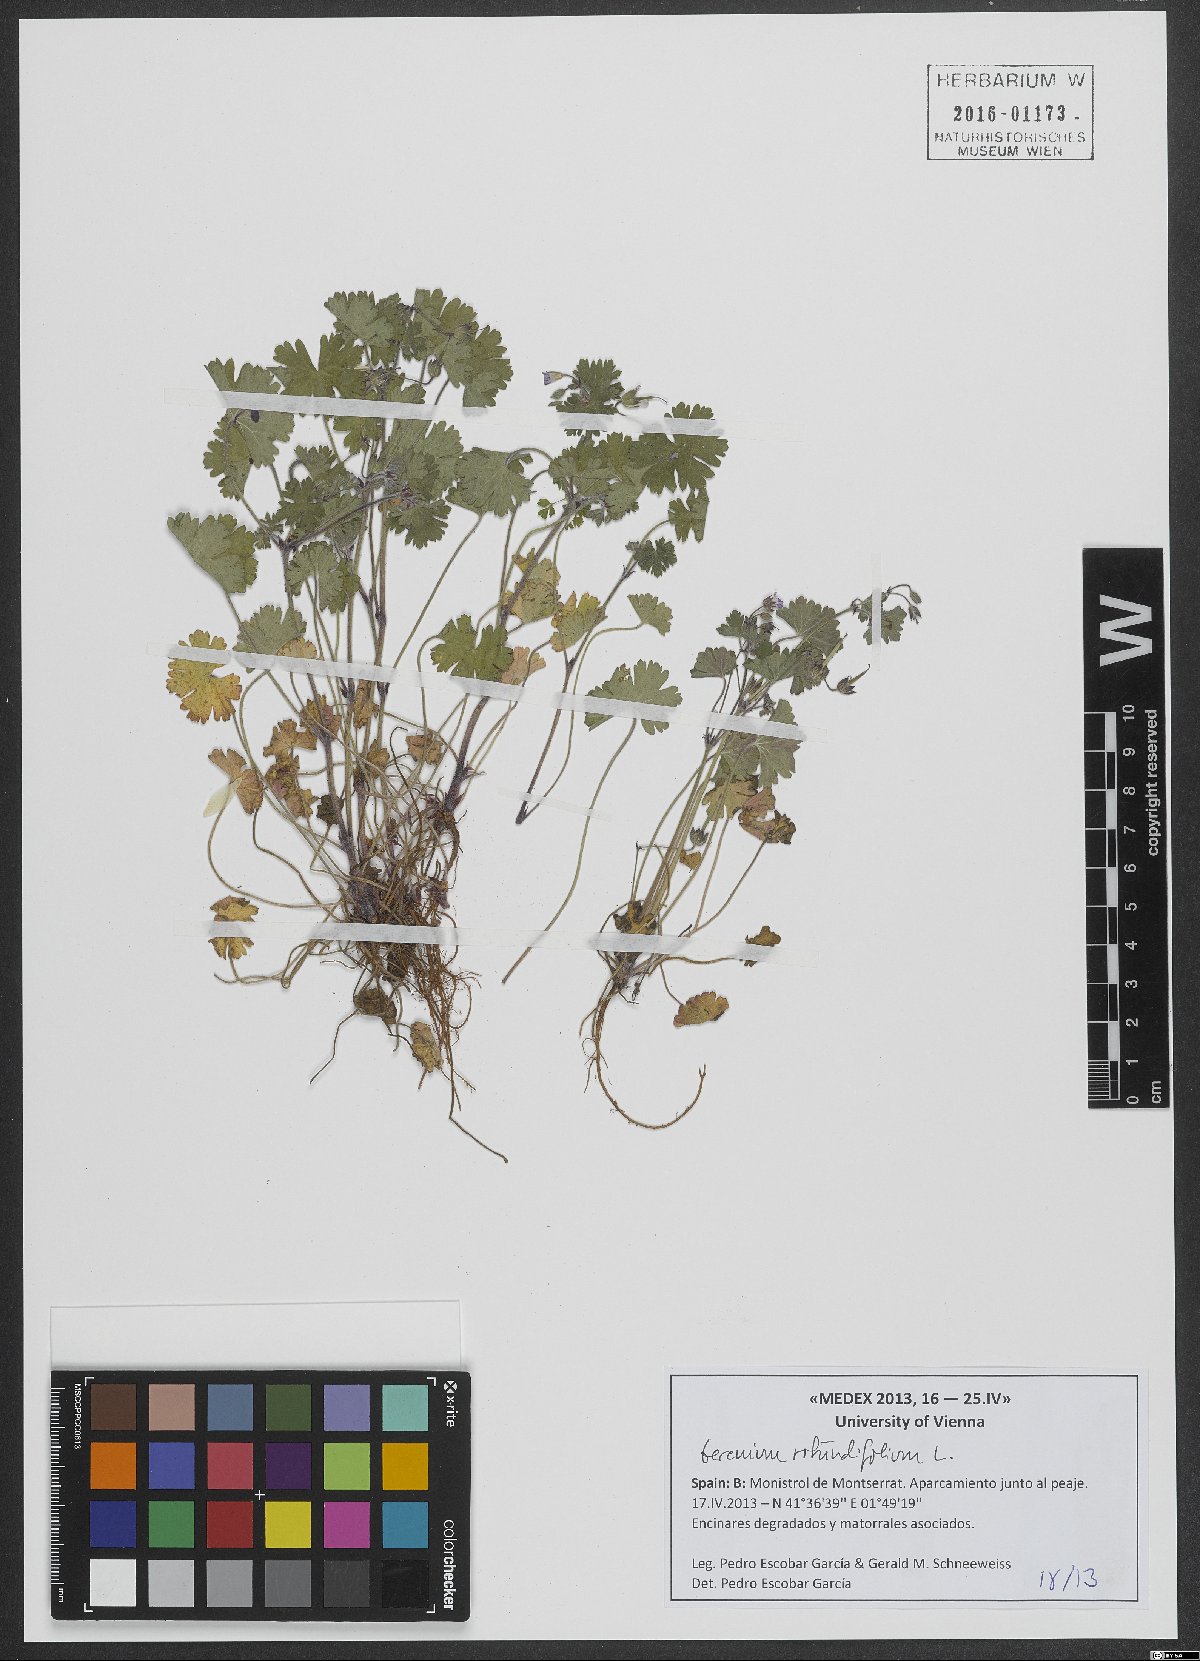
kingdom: Plantae
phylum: Tracheophyta
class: Magnoliopsida
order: Geraniales
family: Geraniaceae
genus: Geranium
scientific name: Geranium rotundifolium
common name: Round-leaved crane's-bill
